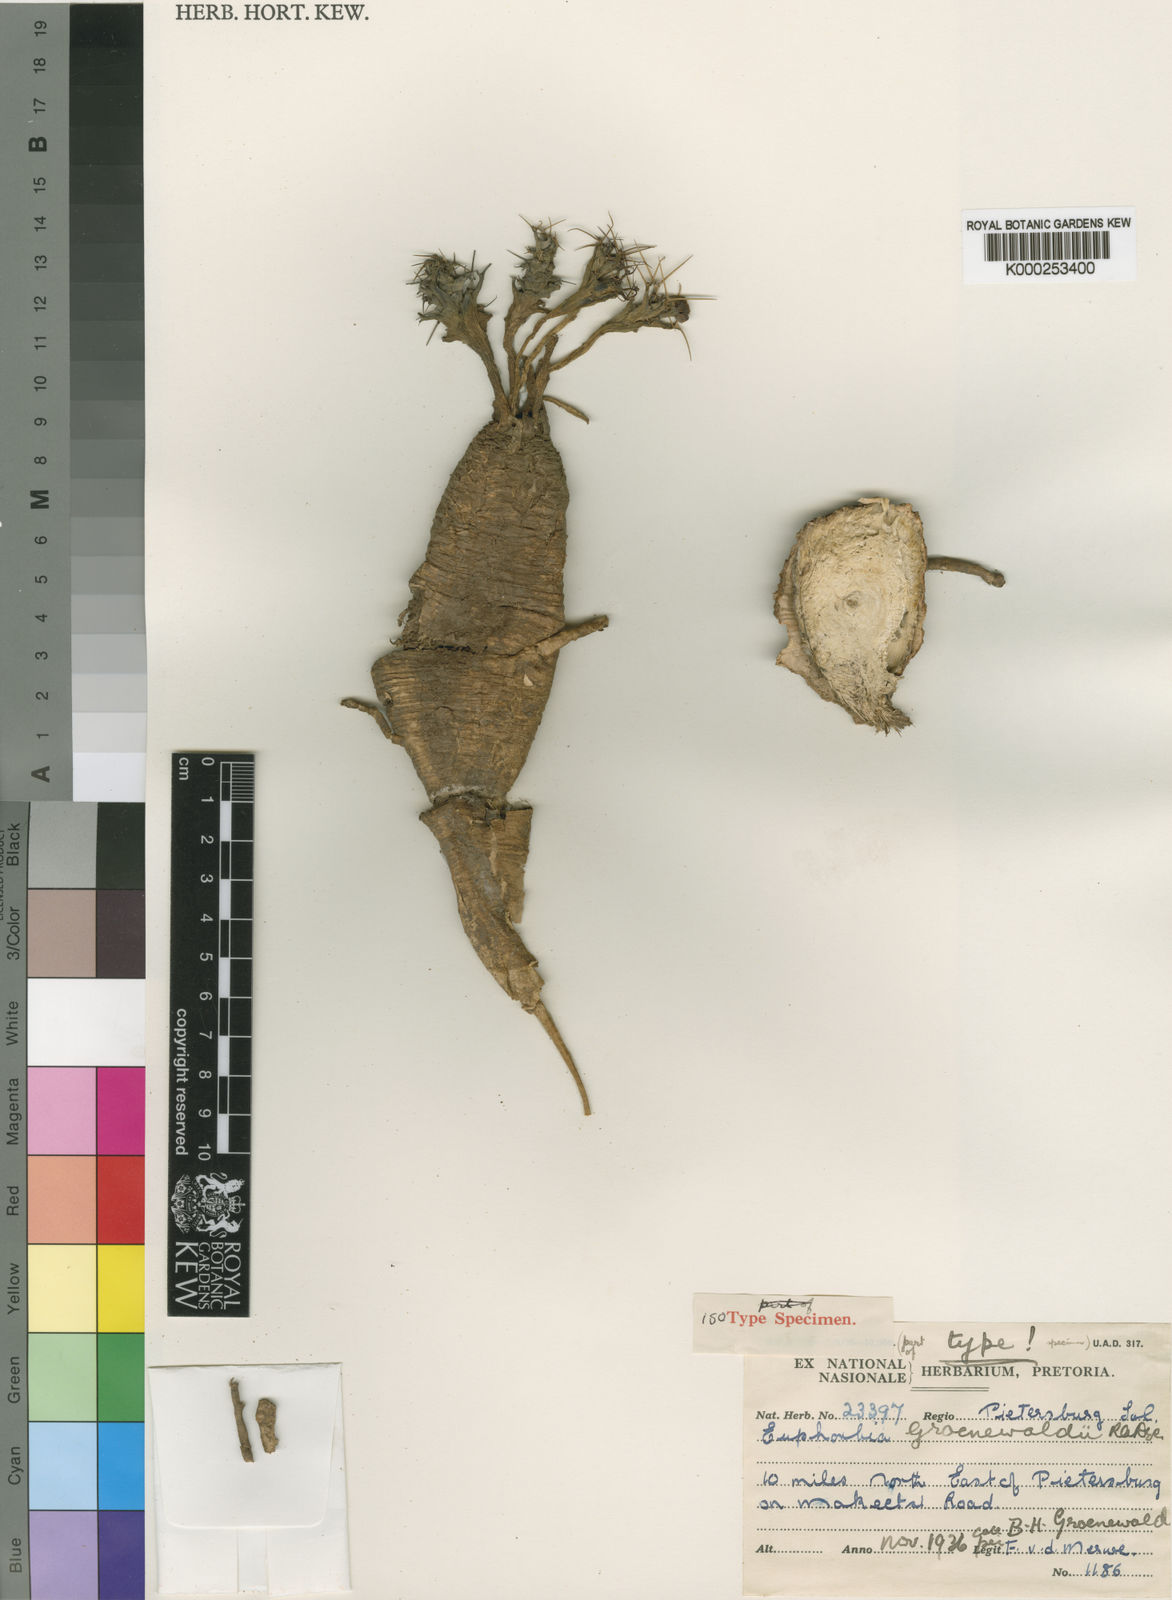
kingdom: Plantae
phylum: Tracheophyta
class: Magnoliopsida
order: Malpighiales
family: Euphorbiaceae
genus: Euphorbia
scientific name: Euphorbia groenewaldii
